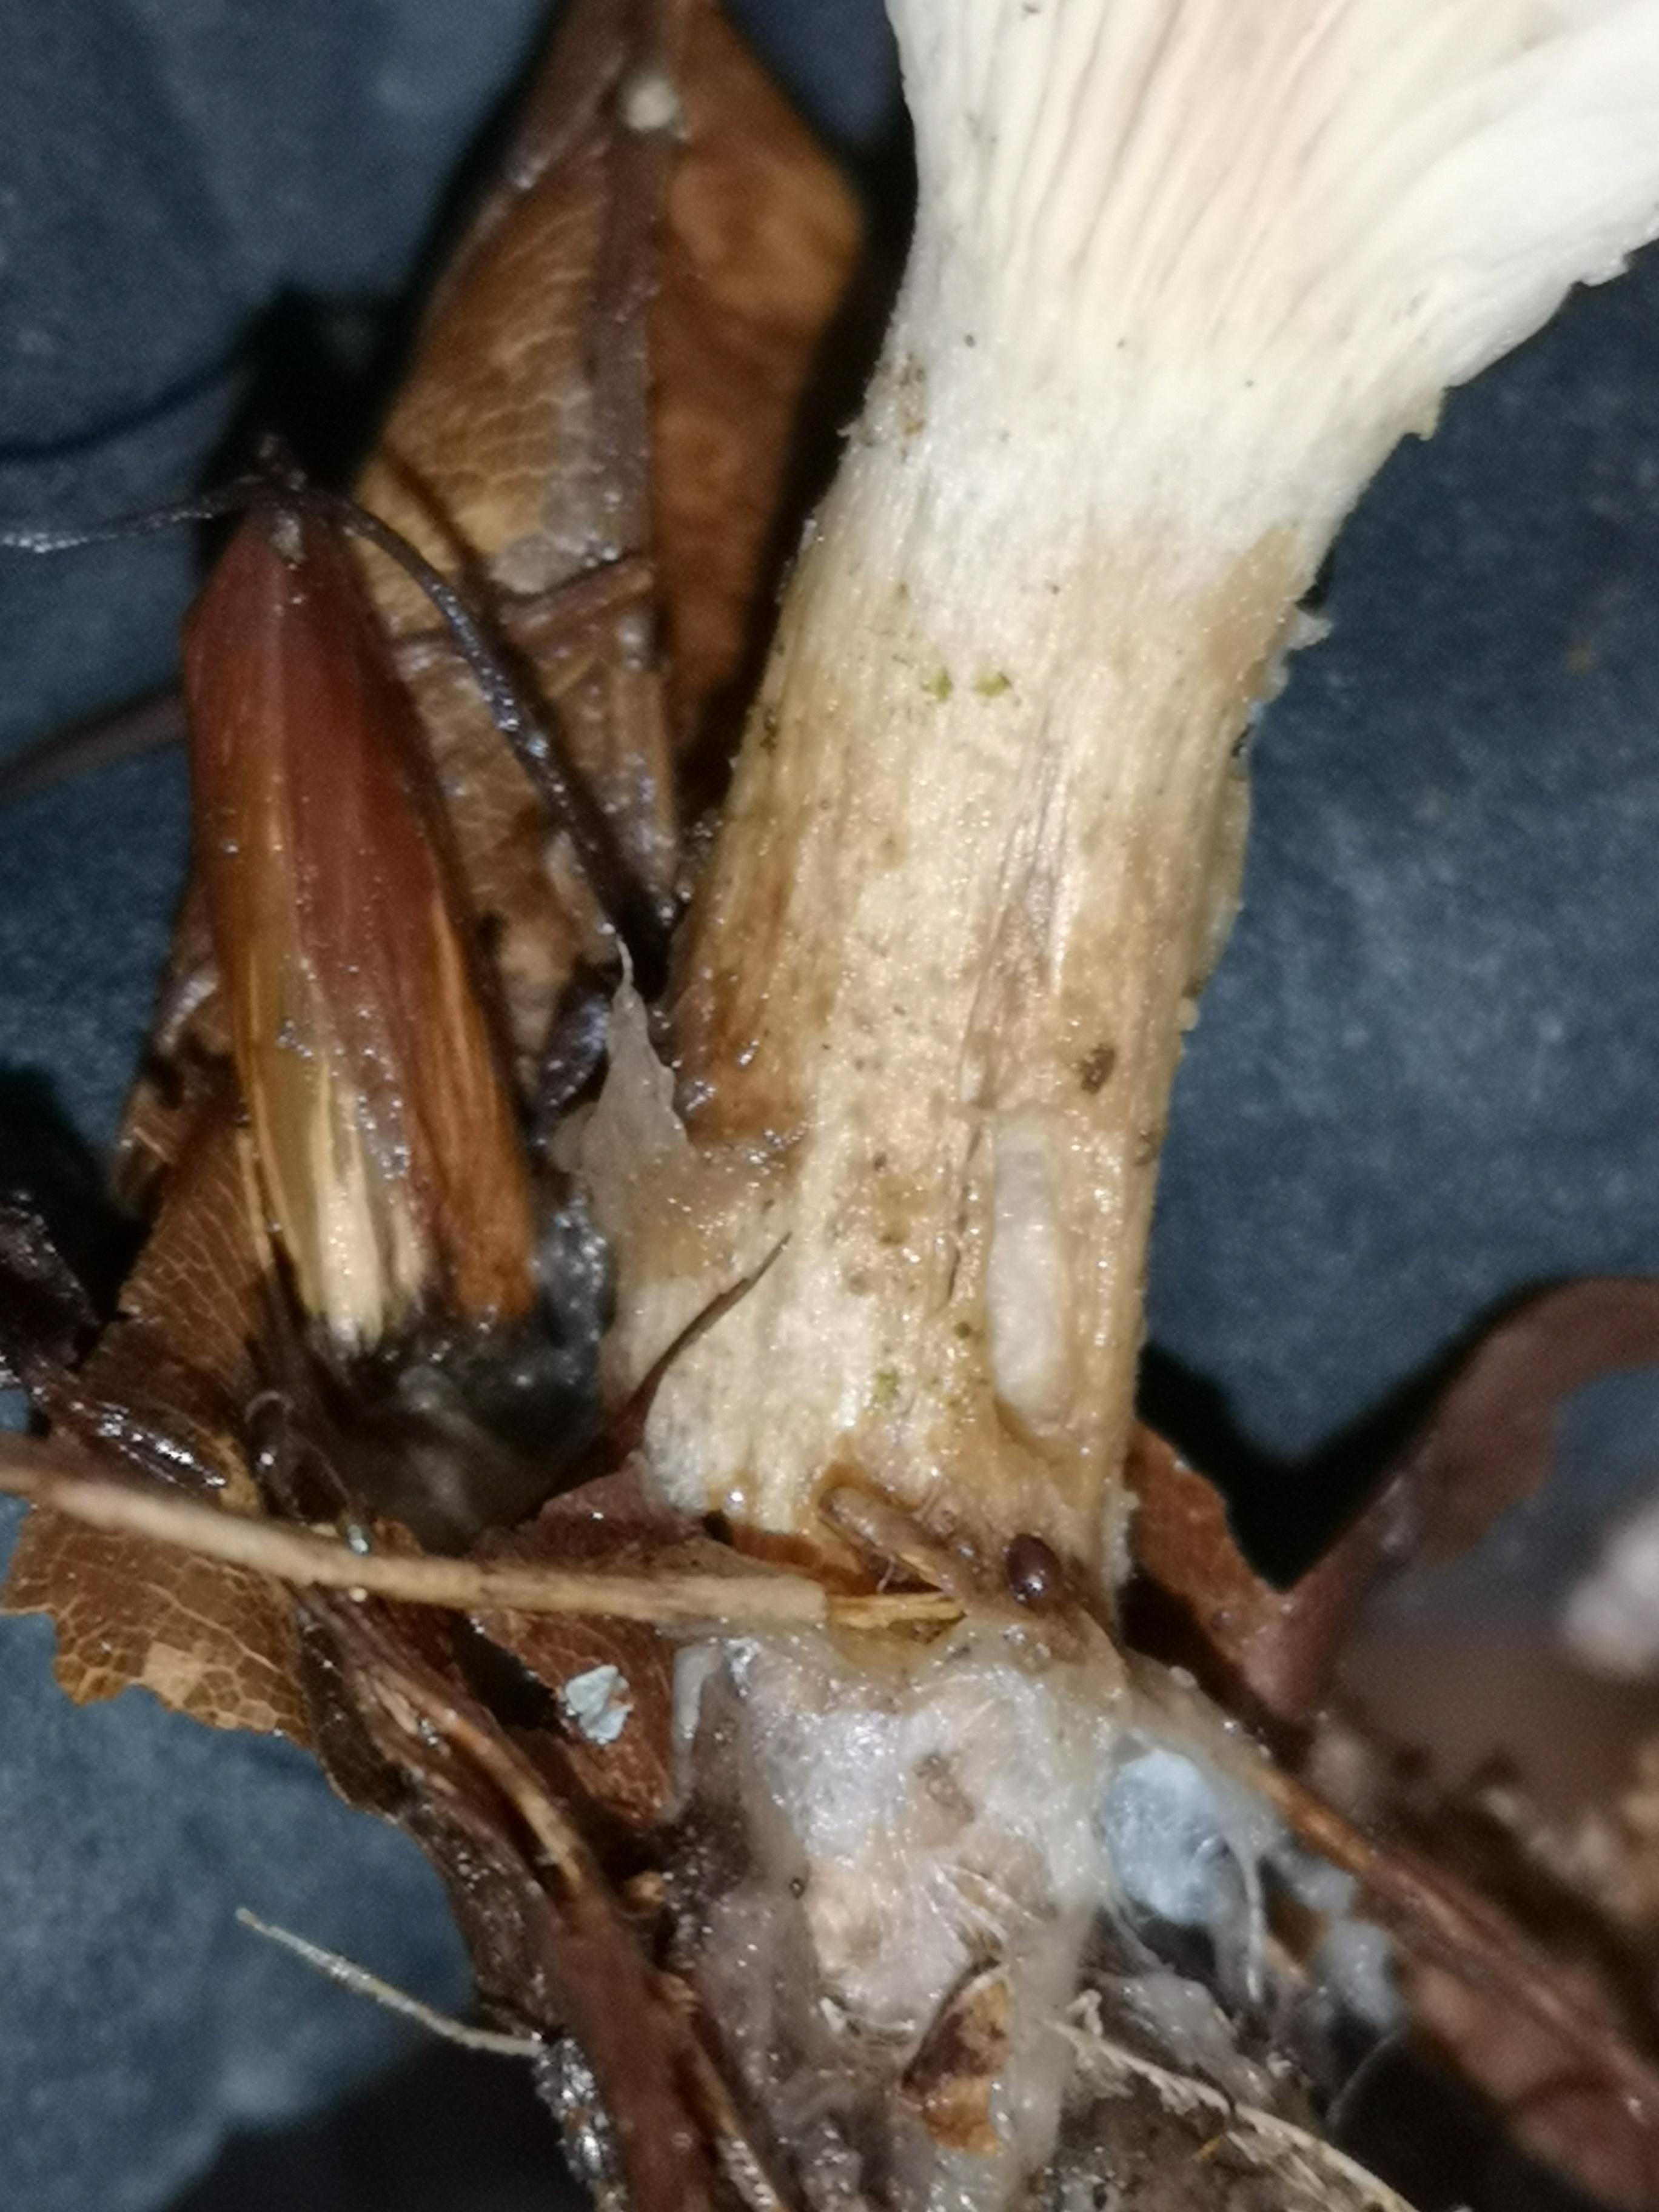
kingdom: Fungi
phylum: Basidiomycota
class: Agaricomycetes
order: Agaricales
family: Tricholomataceae
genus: Paralepista
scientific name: Paralepista flaccida
